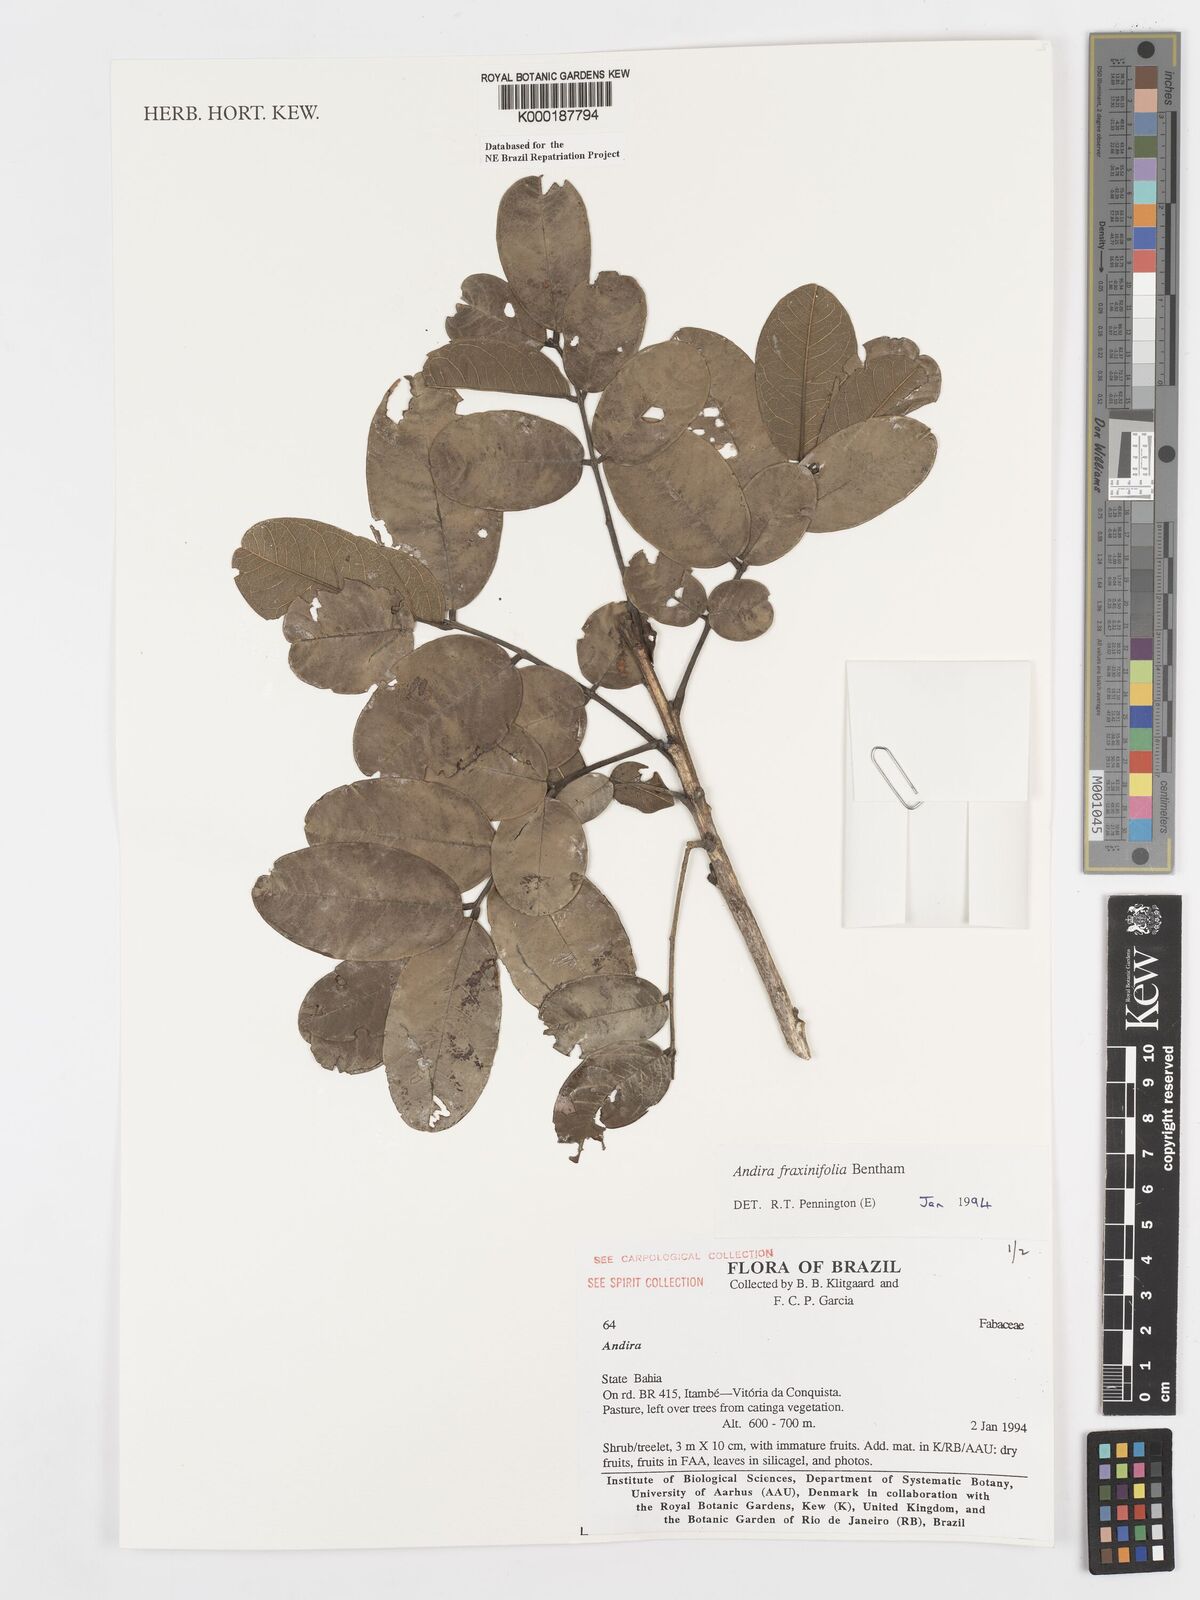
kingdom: Plantae
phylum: Tracheophyta
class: Magnoliopsida
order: Fabales
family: Fabaceae
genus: Andira
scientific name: Andira fraxinifolia
